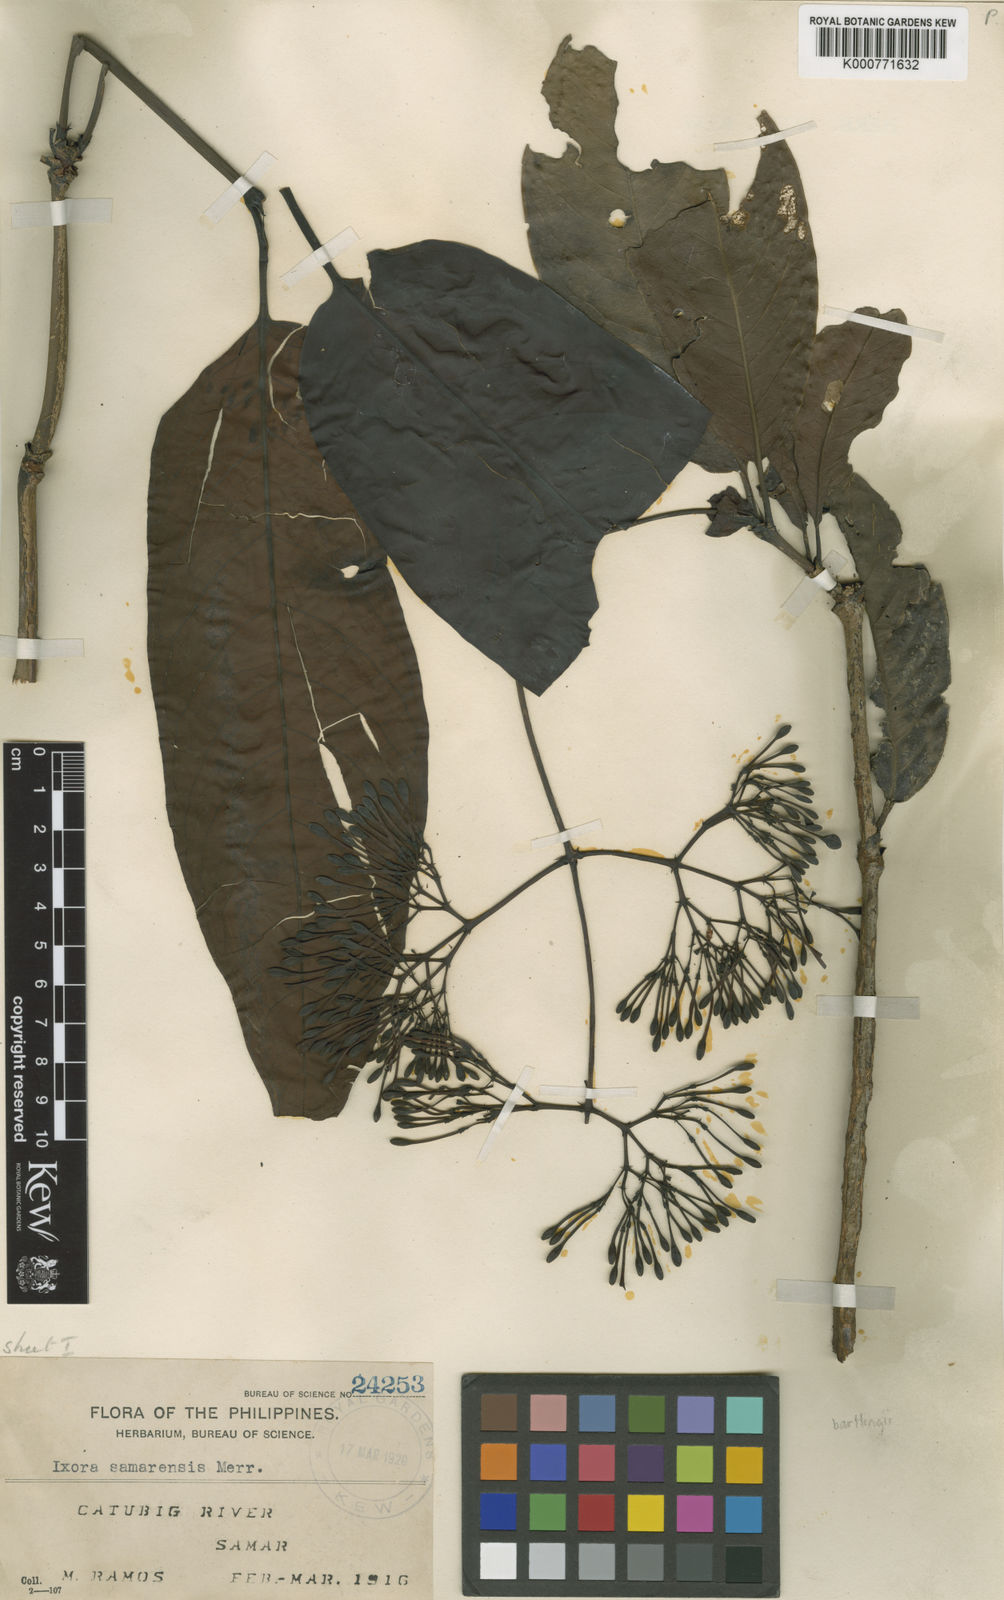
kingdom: Plantae
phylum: Tracheophyta
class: Magnoliopsida
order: Gentianales
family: Rubiaceae
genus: Ixora
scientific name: Ixora samarensis
